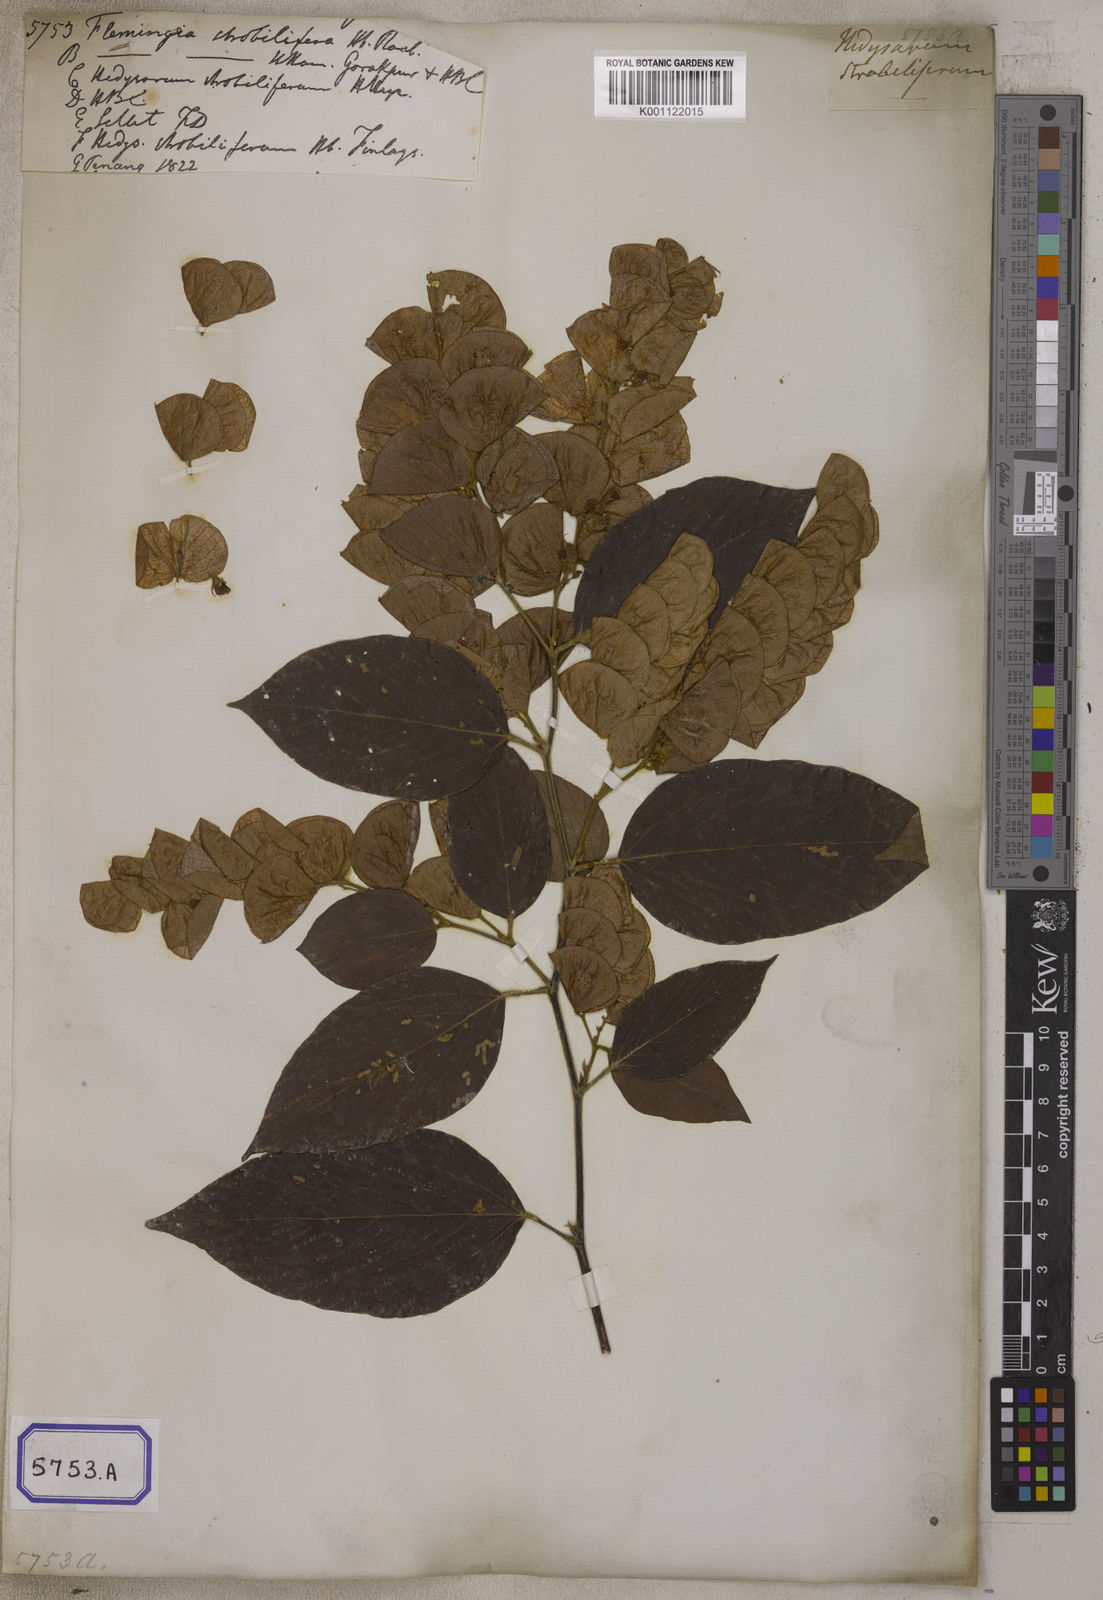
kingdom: Plantae
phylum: Tracheophyta
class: Magnoliopsida
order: Fabales
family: Fabaceae
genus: Flemingia
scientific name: Flemingia strobilifera
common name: Wild hops
